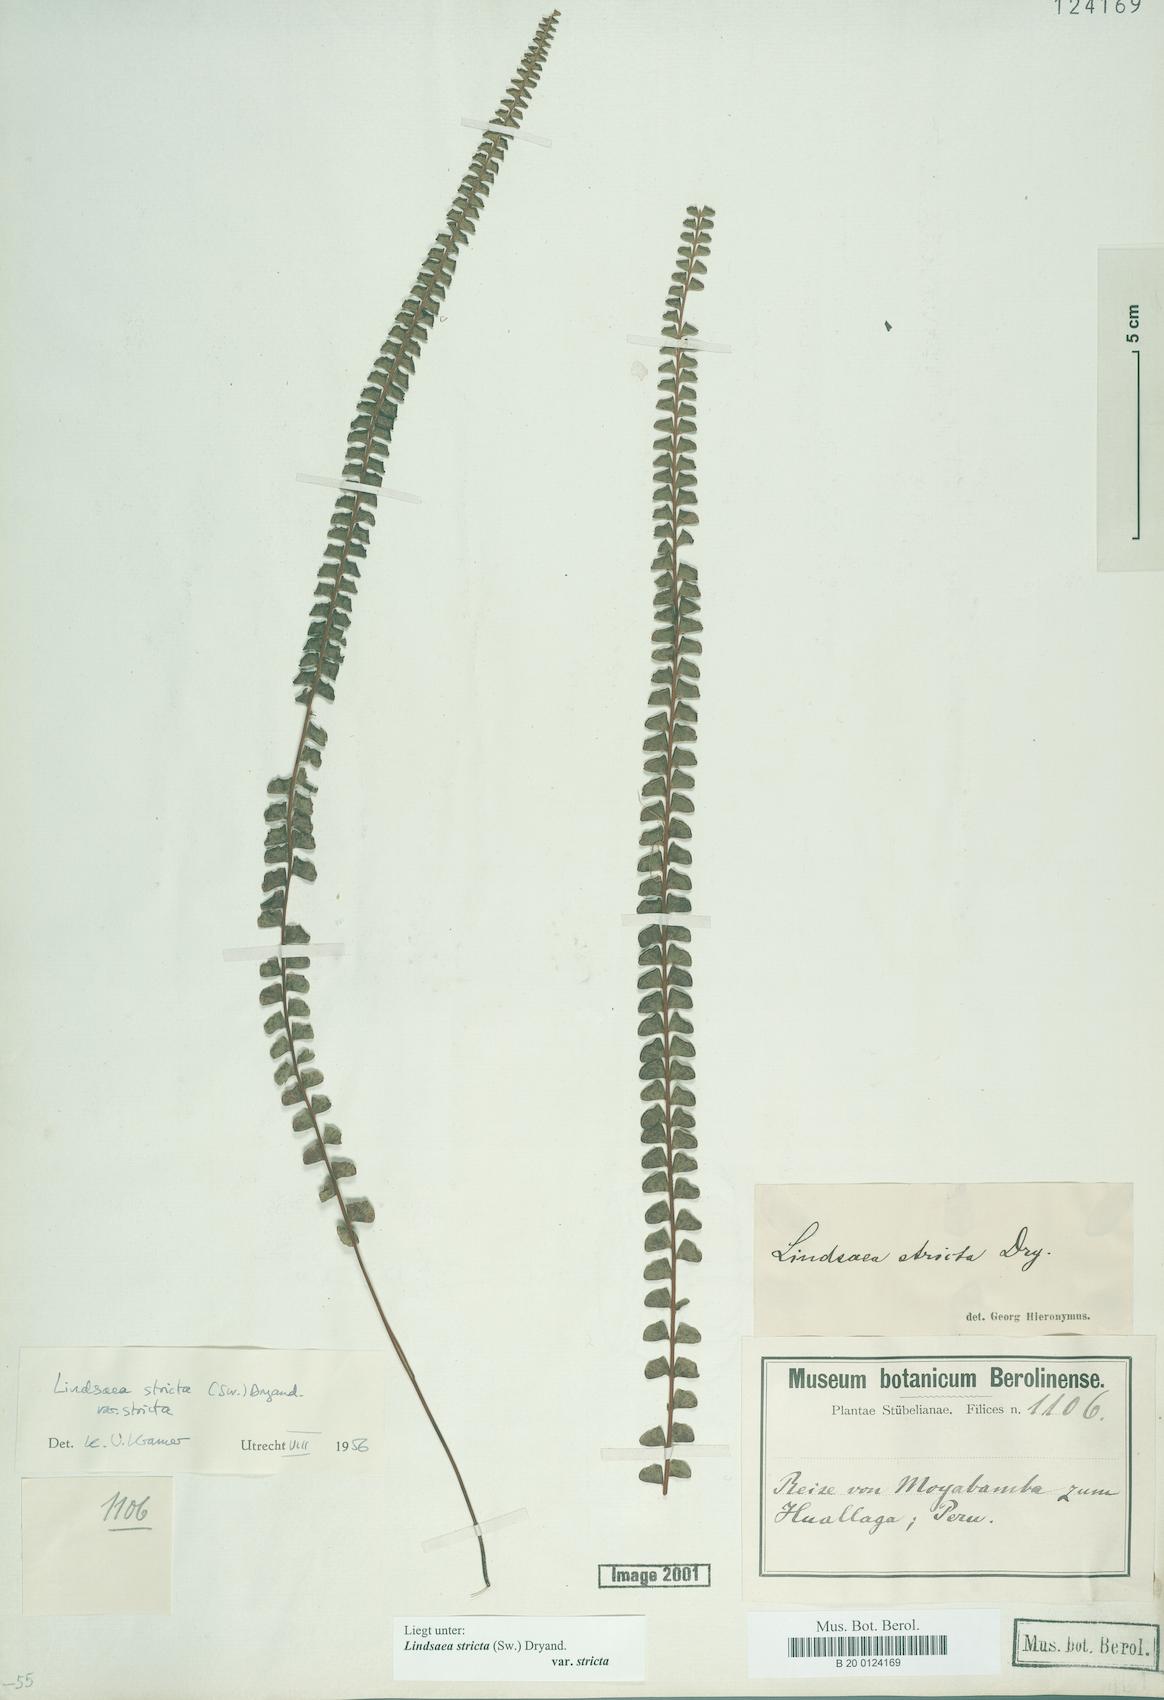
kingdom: Plantae
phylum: Tracheophyta
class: Polypodiopsida
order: Polypodiales
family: Lindsaeaceae
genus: Lindsaea
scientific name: Lindsaea stricta
